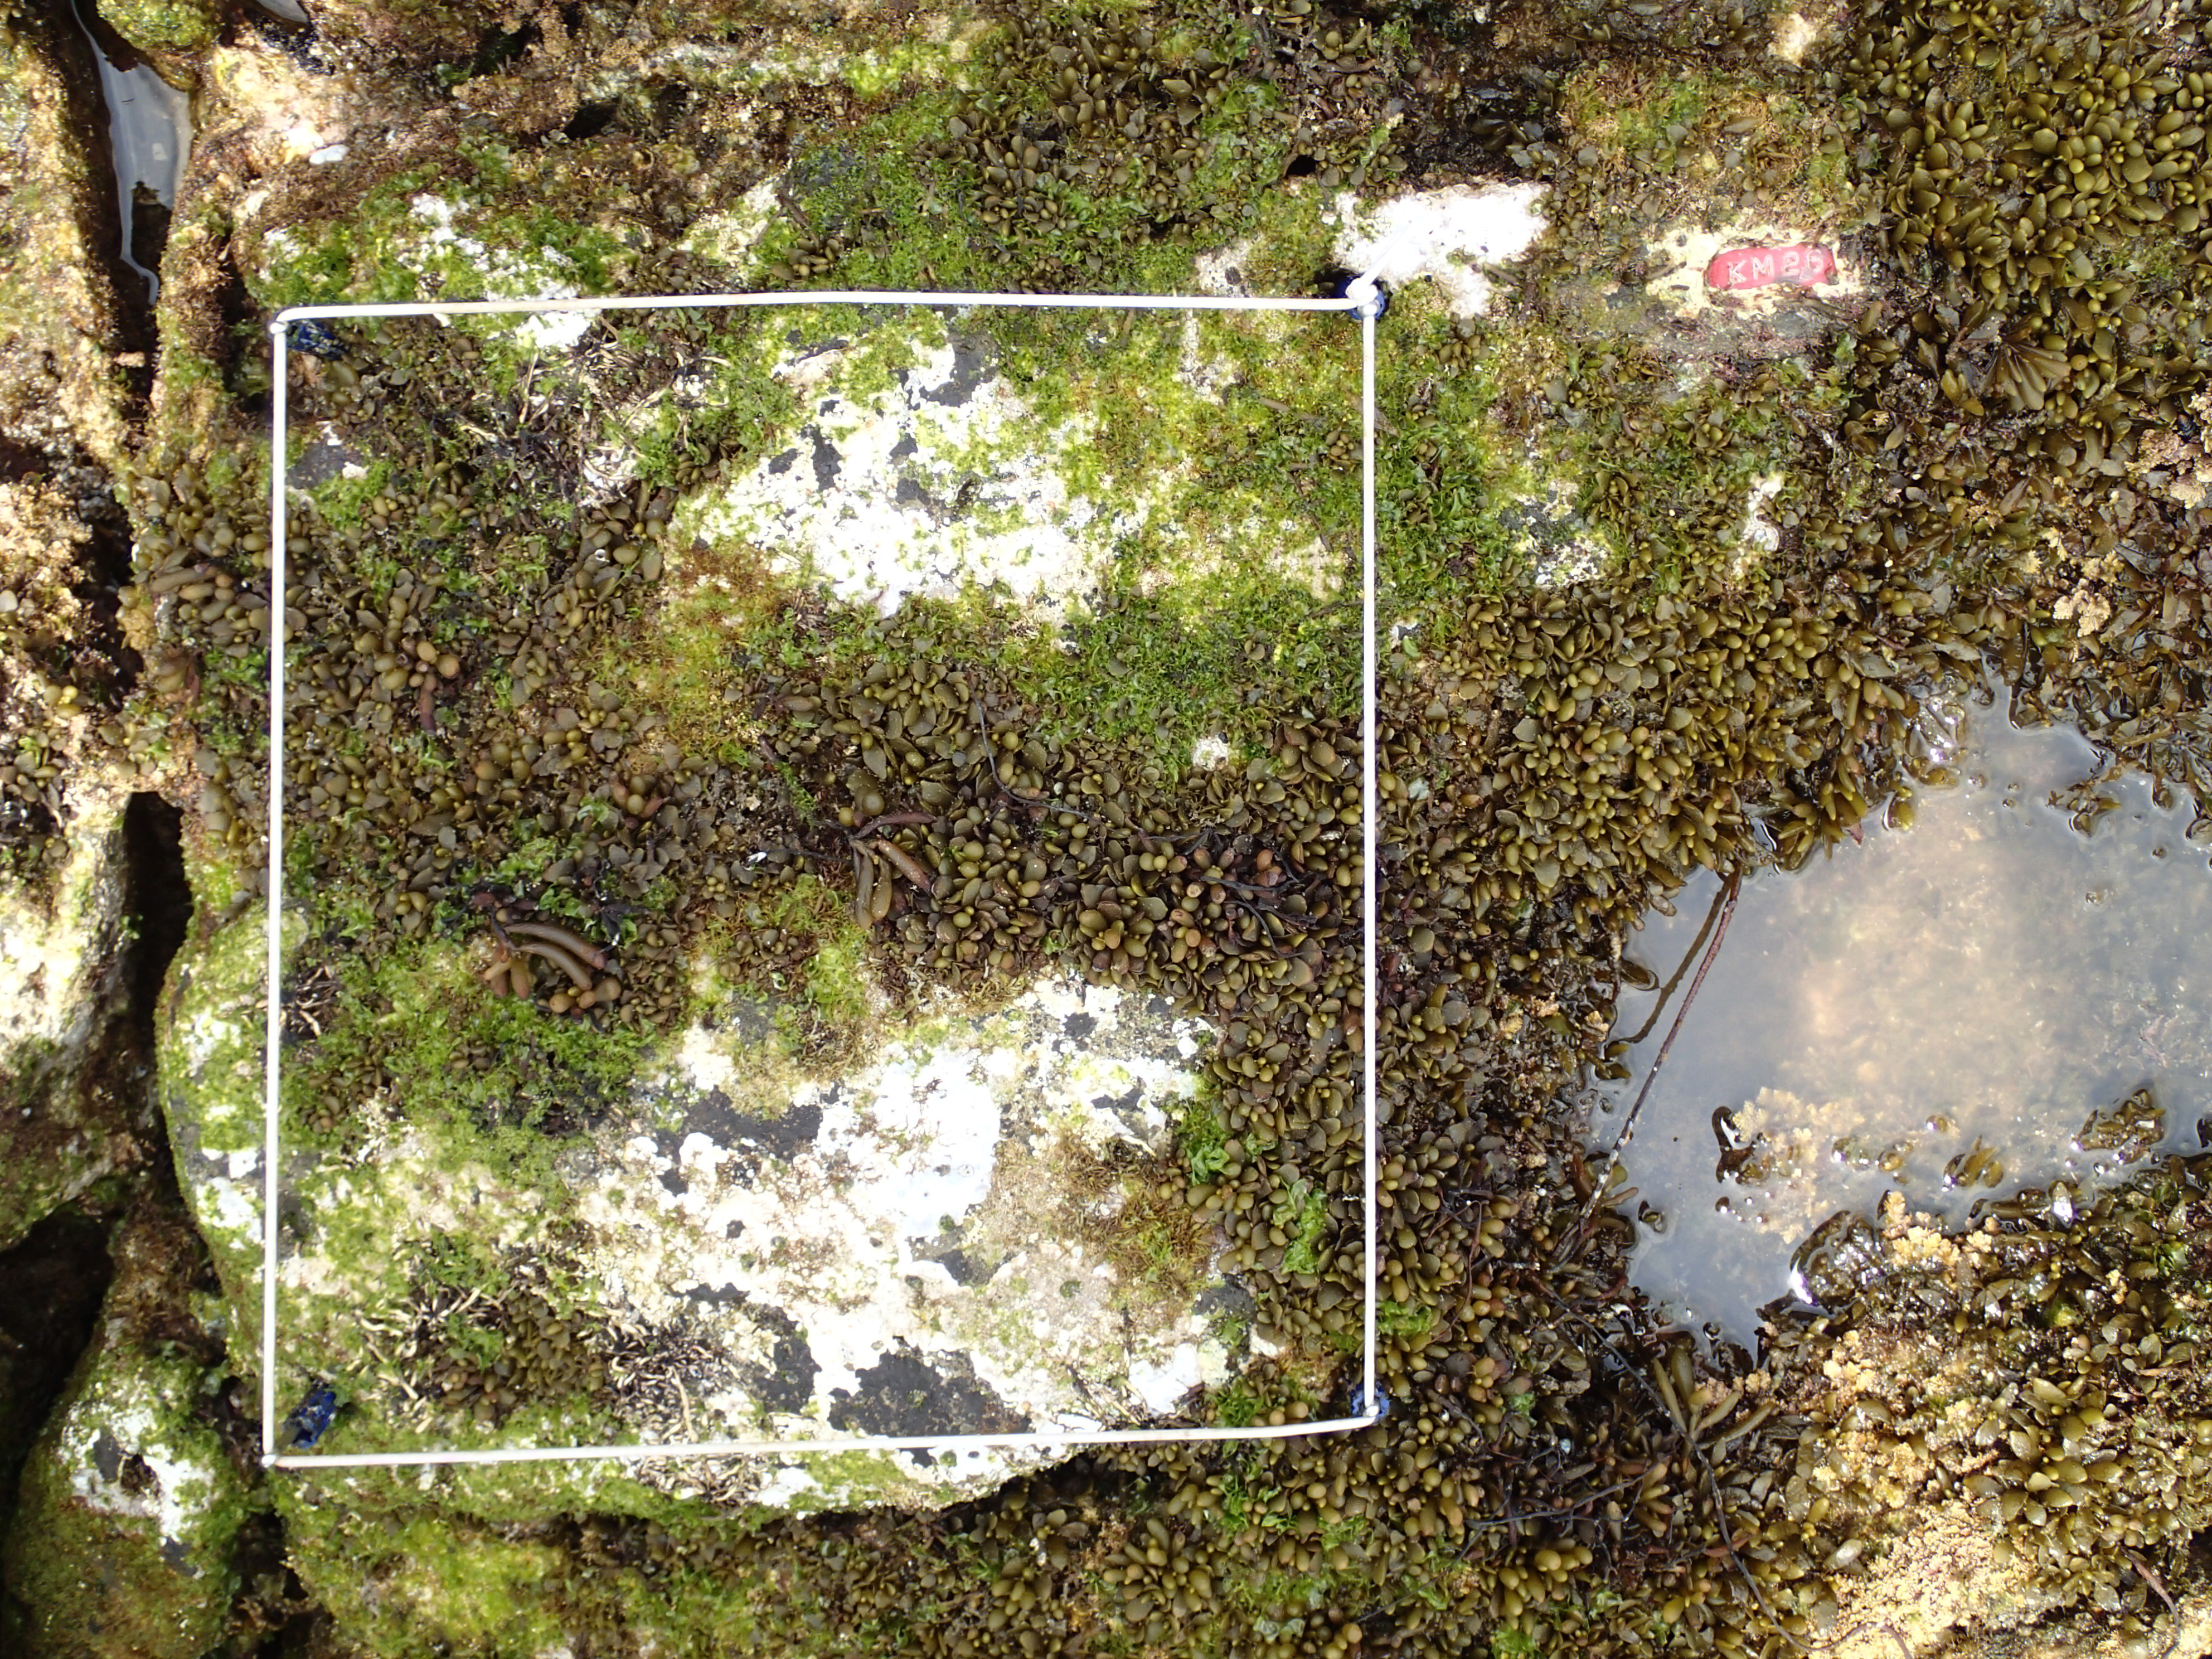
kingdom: Chromista
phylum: Ochrophyta
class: Phaeophyceae
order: Fucales
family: Sargassaceae
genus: Sargassum
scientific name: Sargassum fusiforme
